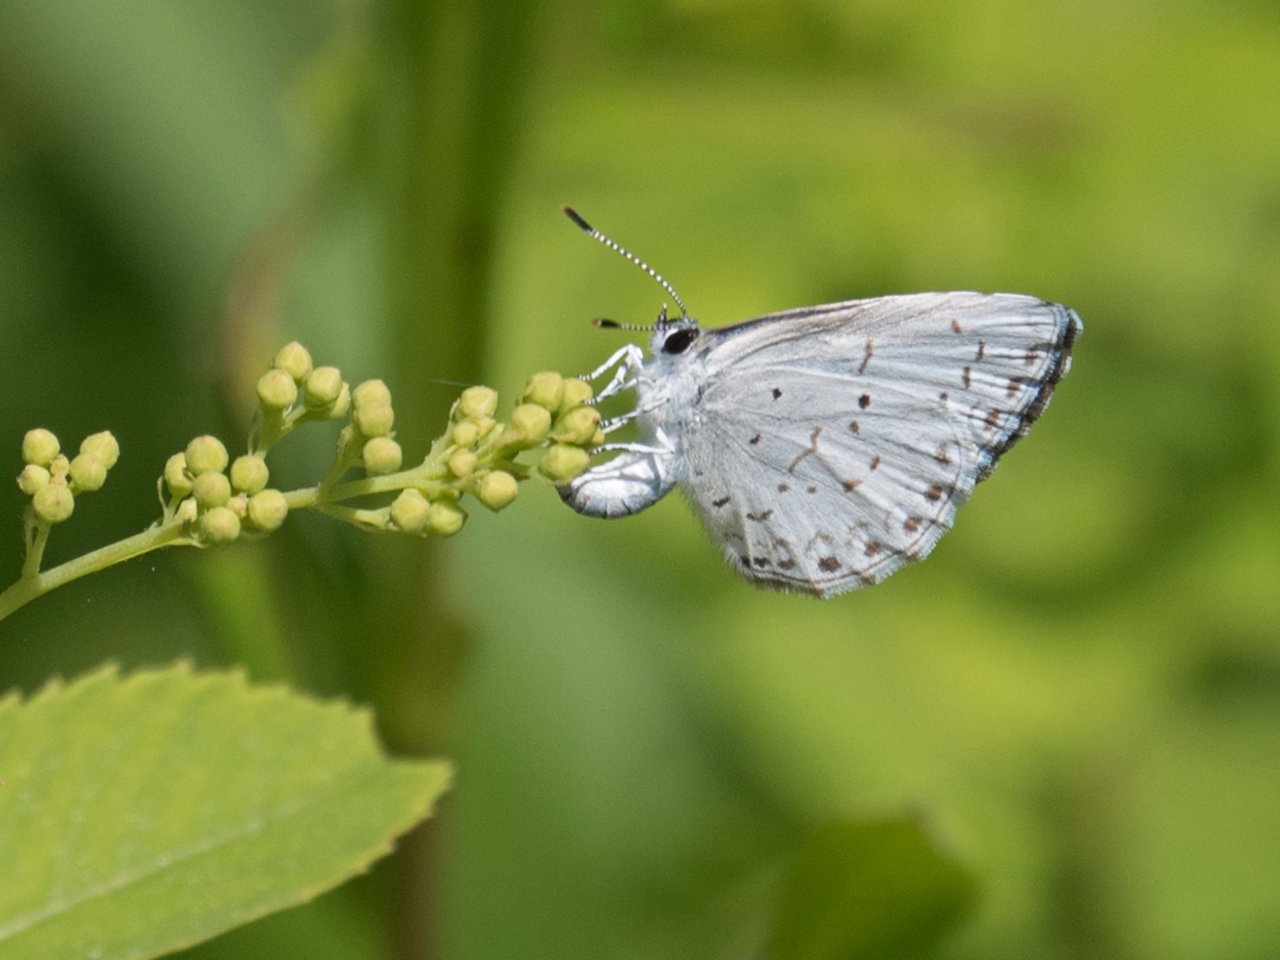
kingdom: Animalia
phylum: Arthropoda
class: Insecta
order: Lepidoptera
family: Lycaenidae
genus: Celastrina
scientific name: Celastrina
